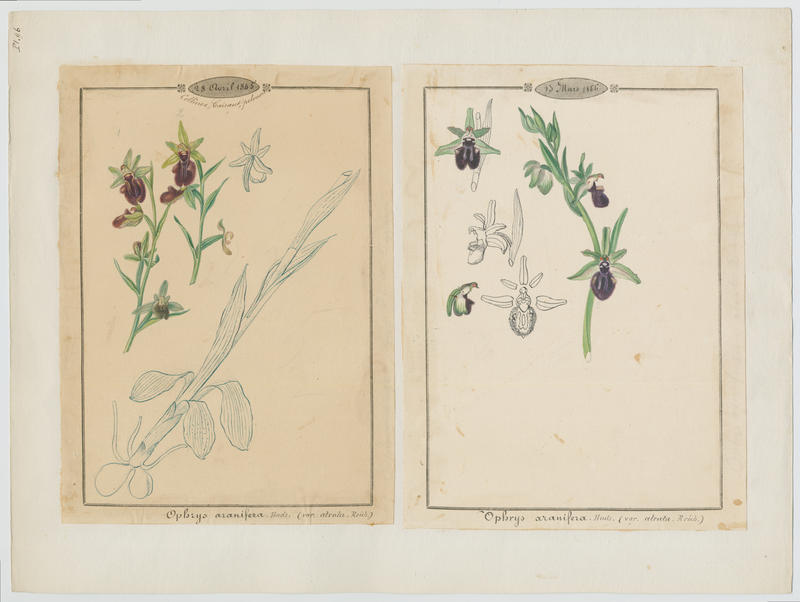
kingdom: Plantae
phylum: Tracheophyta
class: Liliopsida
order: Asparagales
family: Orchidaceae
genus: Ophrys
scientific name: Ophrys sphegodes
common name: Early spider-orchid
